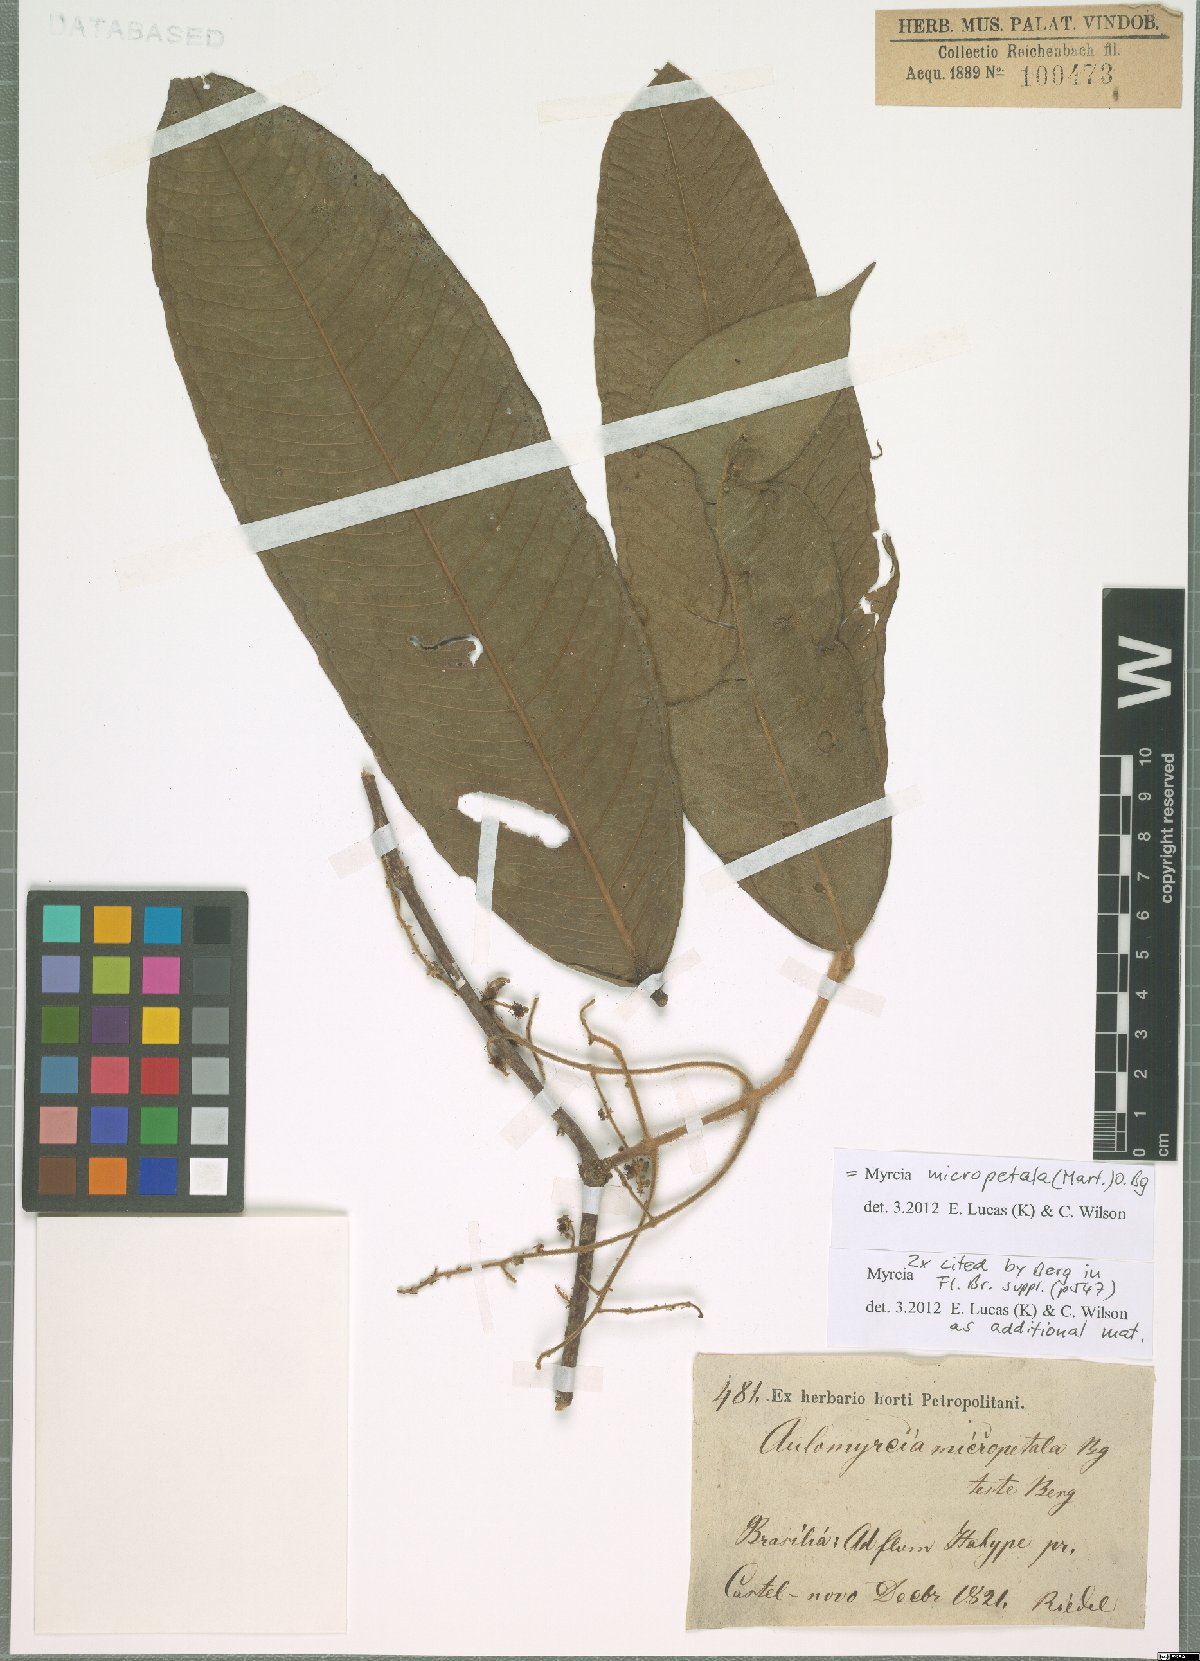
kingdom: Plantae
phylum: Tracheophyta
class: Magnoliopsida
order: Myrtales
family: Myrtaceae
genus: Myrcia
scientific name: Myrcia micropetala
